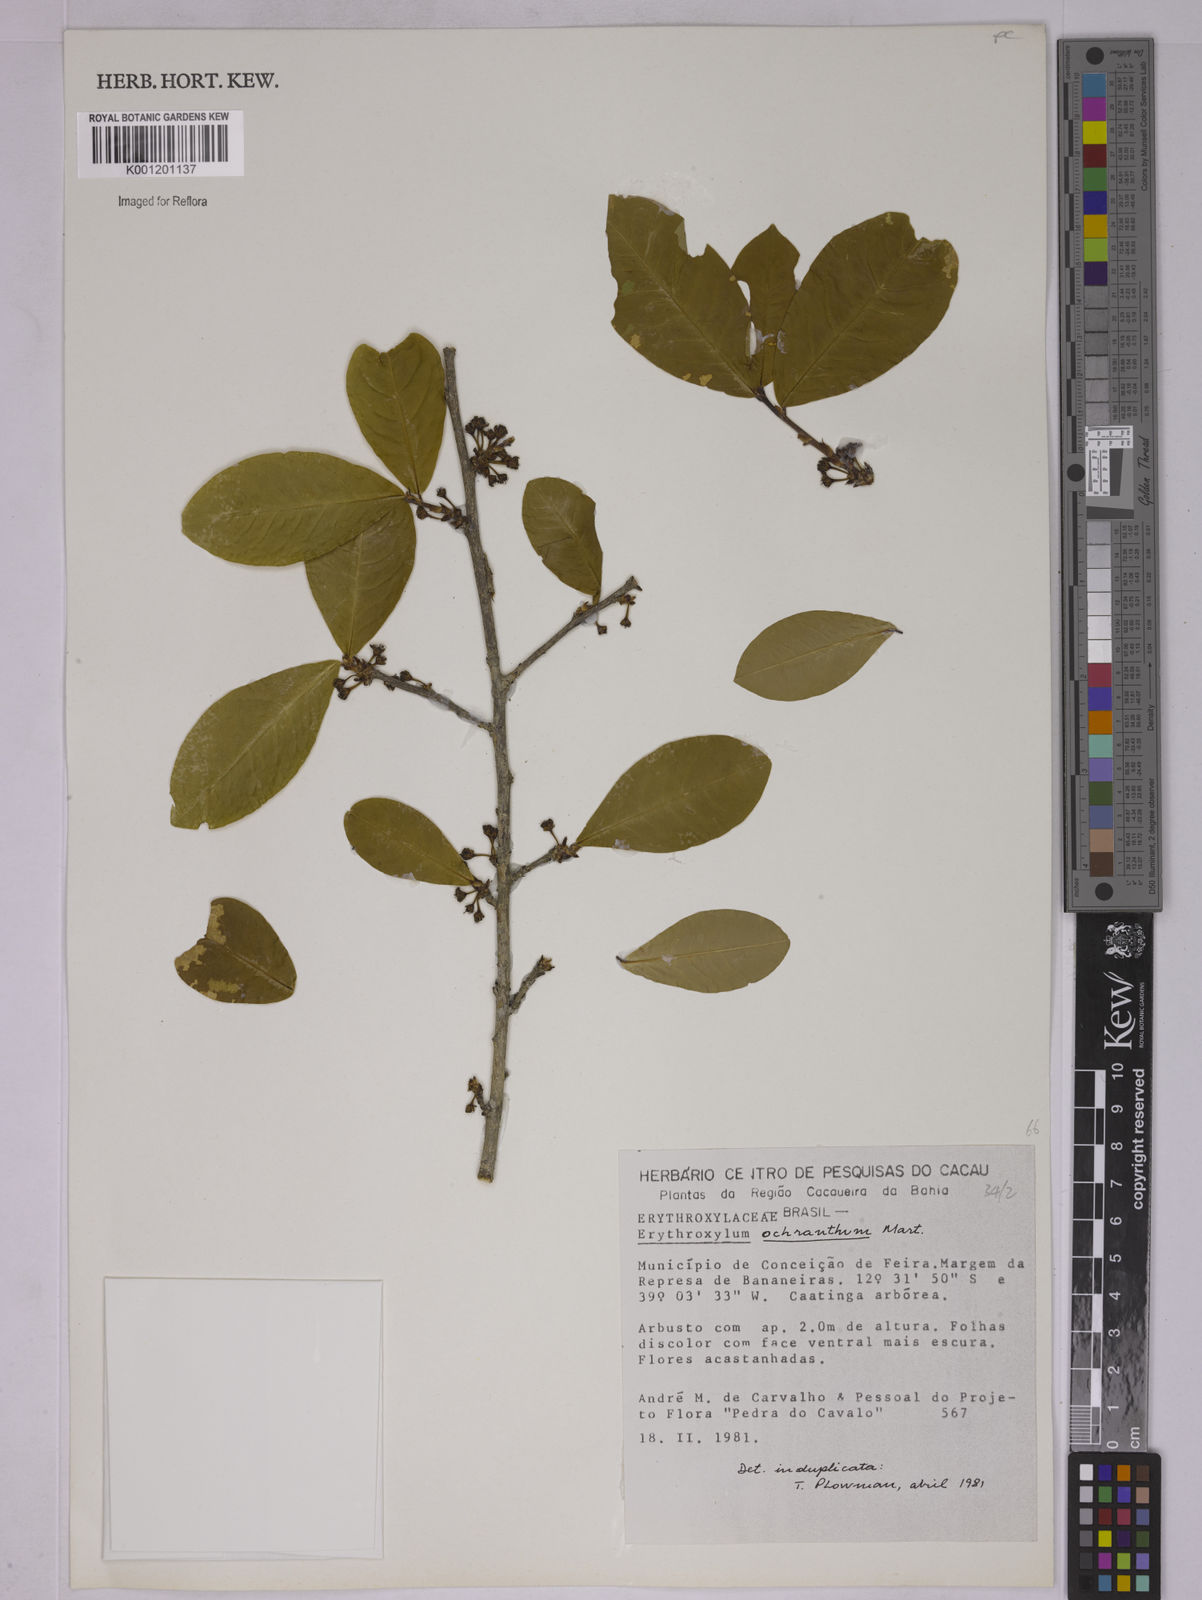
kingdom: Plantae
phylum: Tracheophyta
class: Magnoliopsida
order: Malpighiales
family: Erythroxylaceae
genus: Erythroxylum
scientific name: Erythroxylum ochranthum
